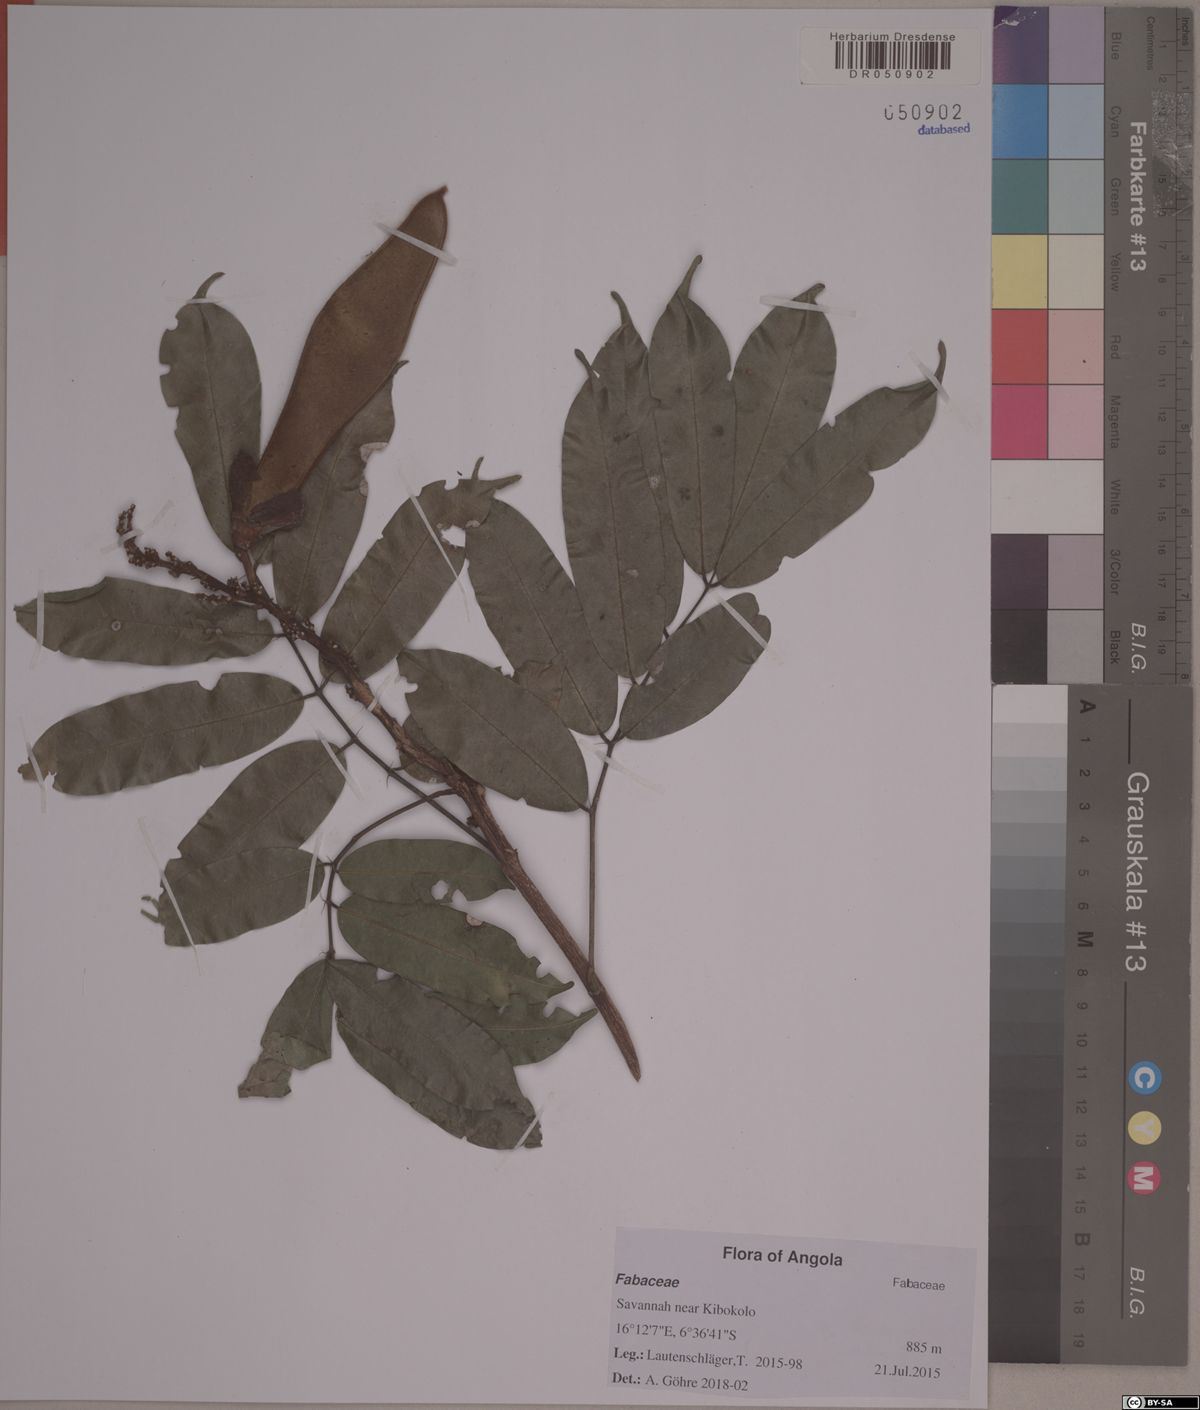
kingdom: Plantae
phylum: Tracheophyta
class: Magnoliopsida
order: Fabales
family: Fabaceae
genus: Millettia
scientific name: Millettia theuszii
